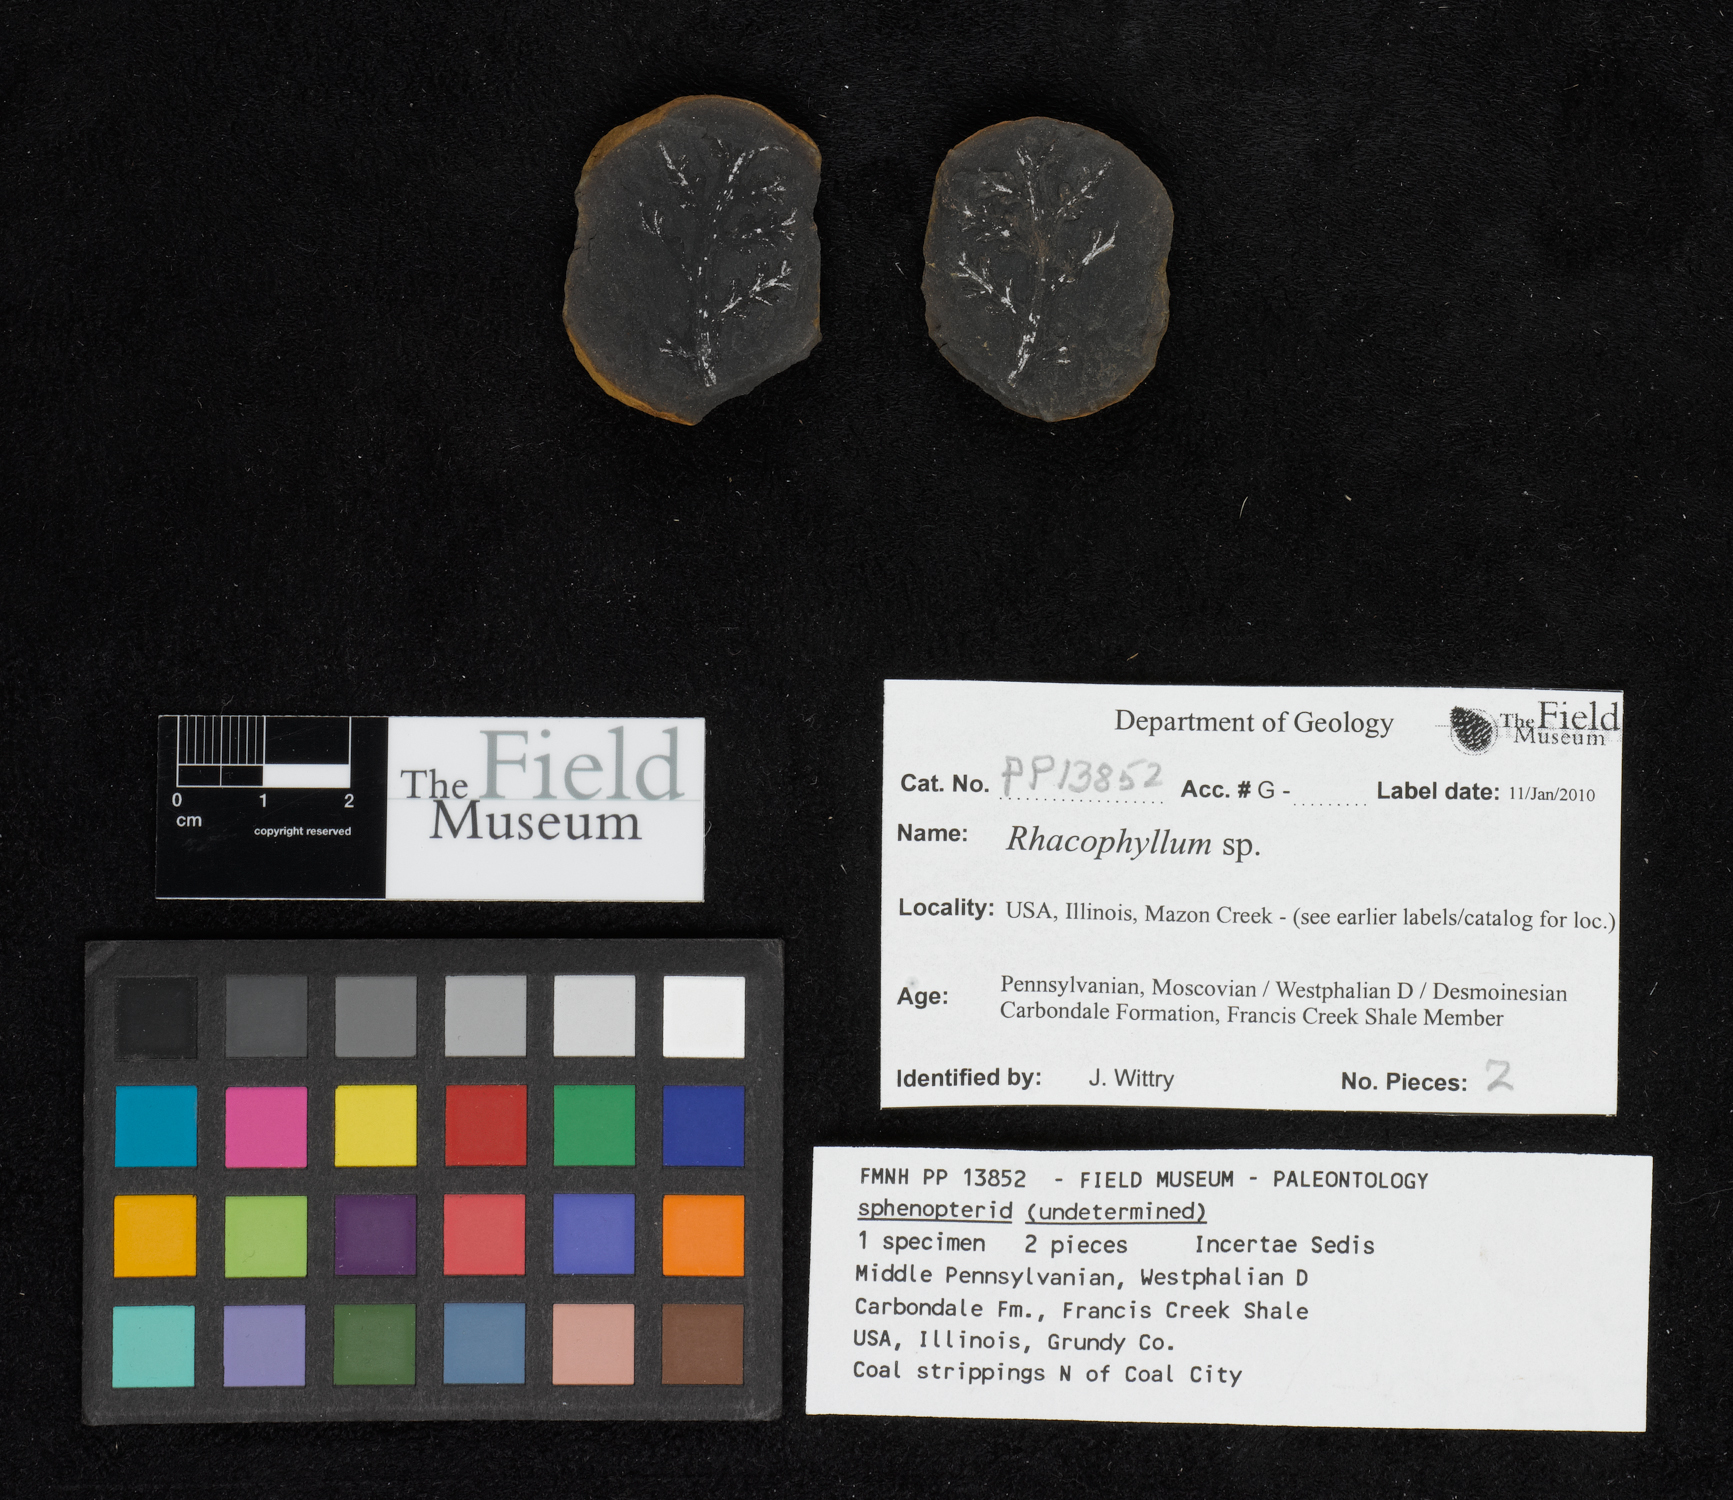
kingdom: Plantae
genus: Rhacophyllum
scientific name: Rhacophyllum
